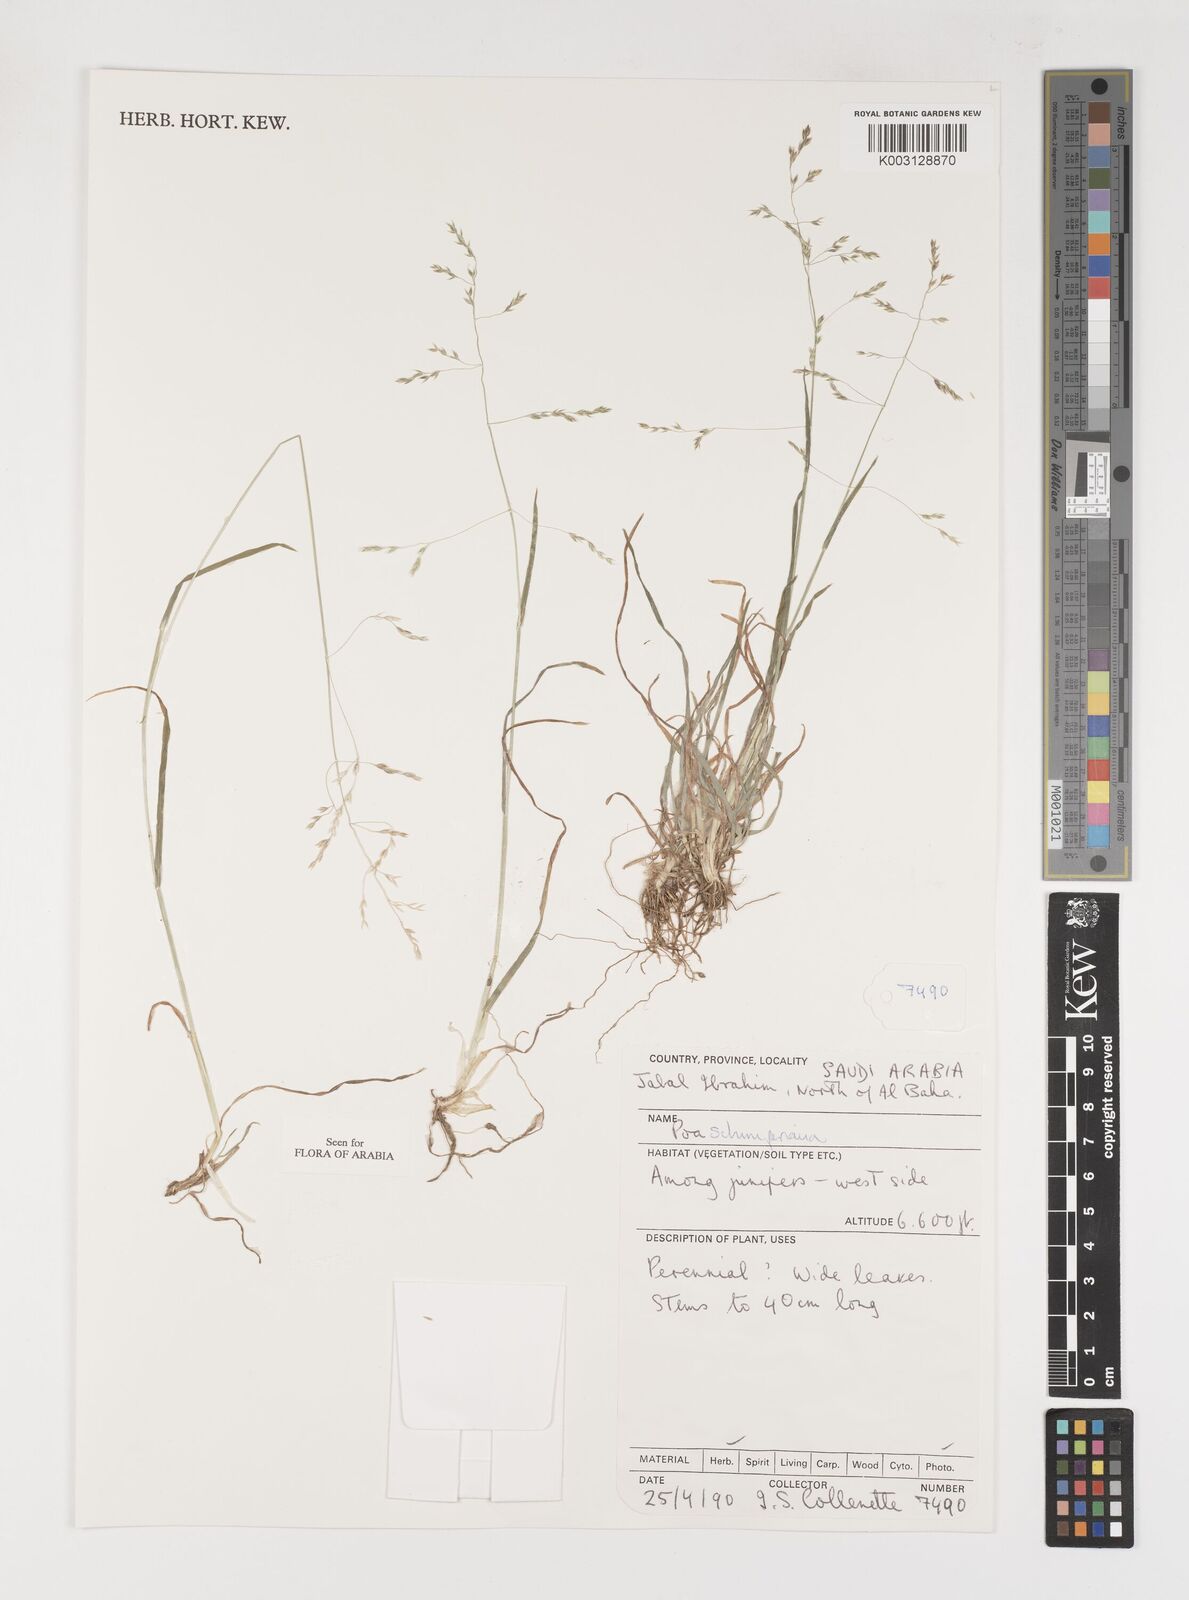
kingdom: Plantae
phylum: Tracheophyta
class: Liliopsida
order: Poales
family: Poaceae
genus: Poa
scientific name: Poa schimperiana
